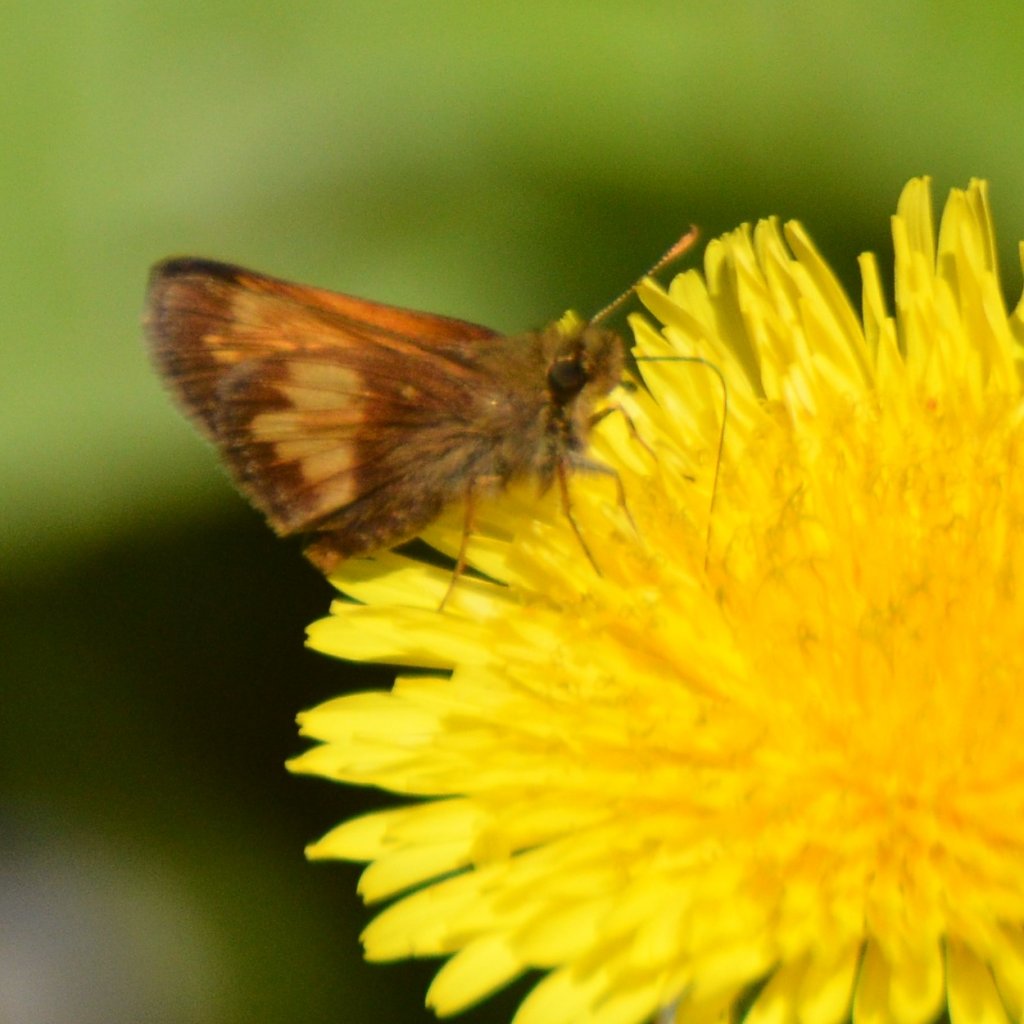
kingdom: Animalia
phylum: Arthropoda
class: Insecta
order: Lepidoptera
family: Hesperiidae
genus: Lon
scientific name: Lon hobomok
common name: Hobomok Skipper
